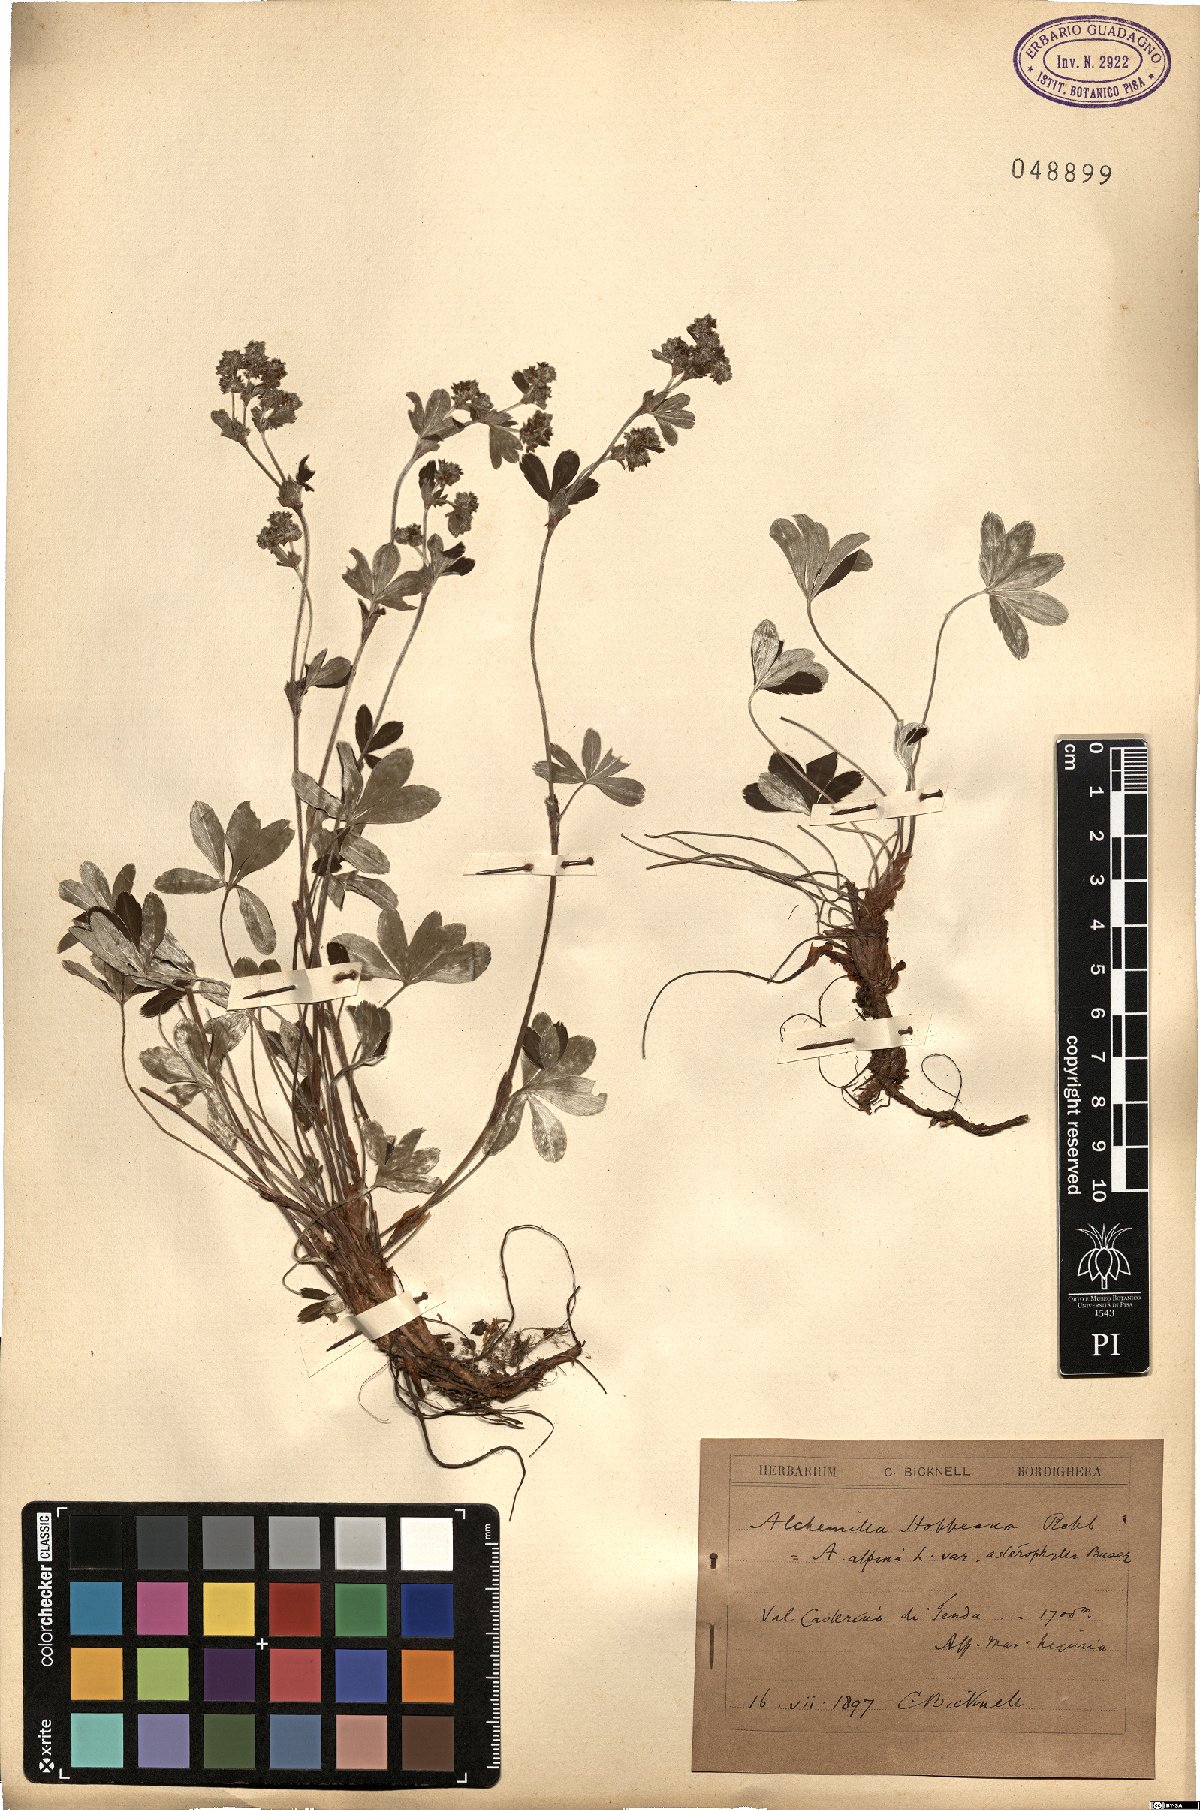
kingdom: Plantae
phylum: Tracheophyta
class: Magnoliopsida
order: Rosales
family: Rosaceae
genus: Alchemilla
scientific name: Alchemilla hoppeana
